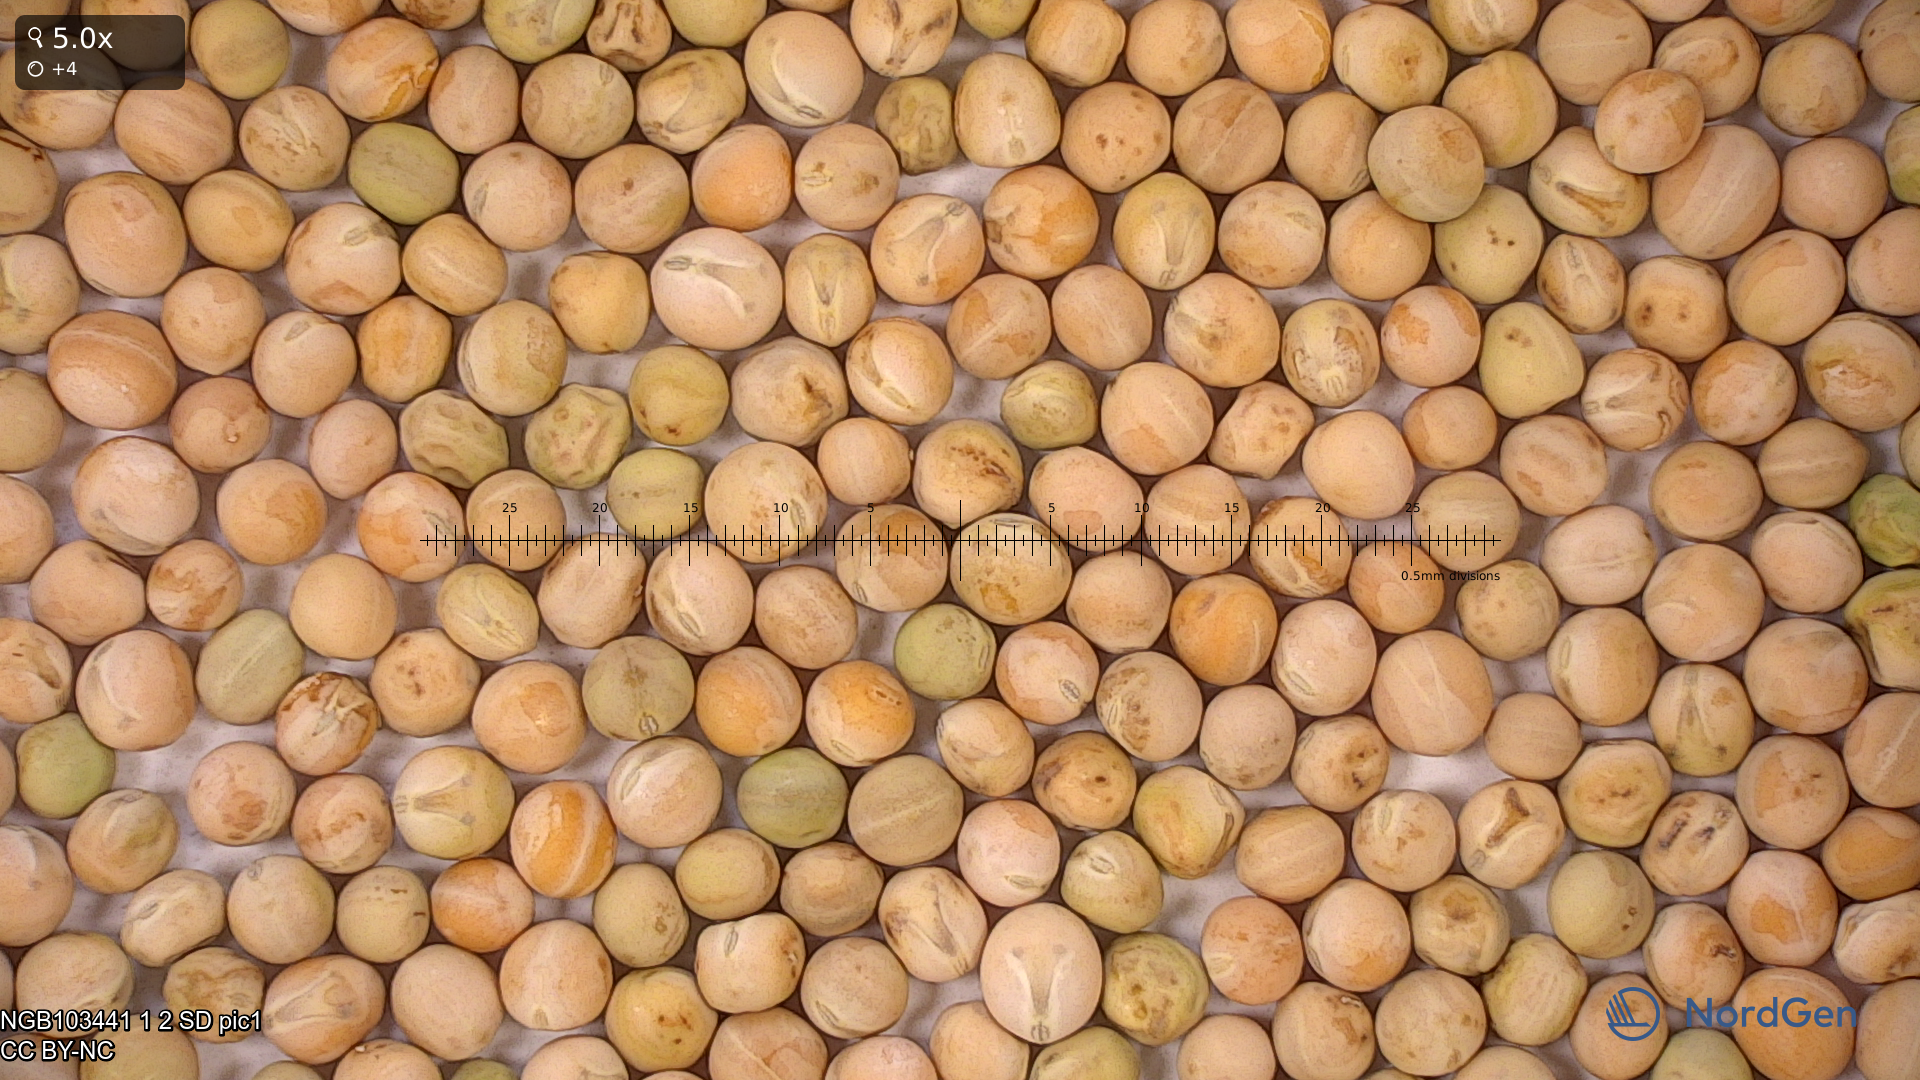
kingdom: Plantae
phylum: Tracheophyta
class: Magnoliopsida
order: Fabales
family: Fabaceae
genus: Lathyrus
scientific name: Lathyrus oleraceus
